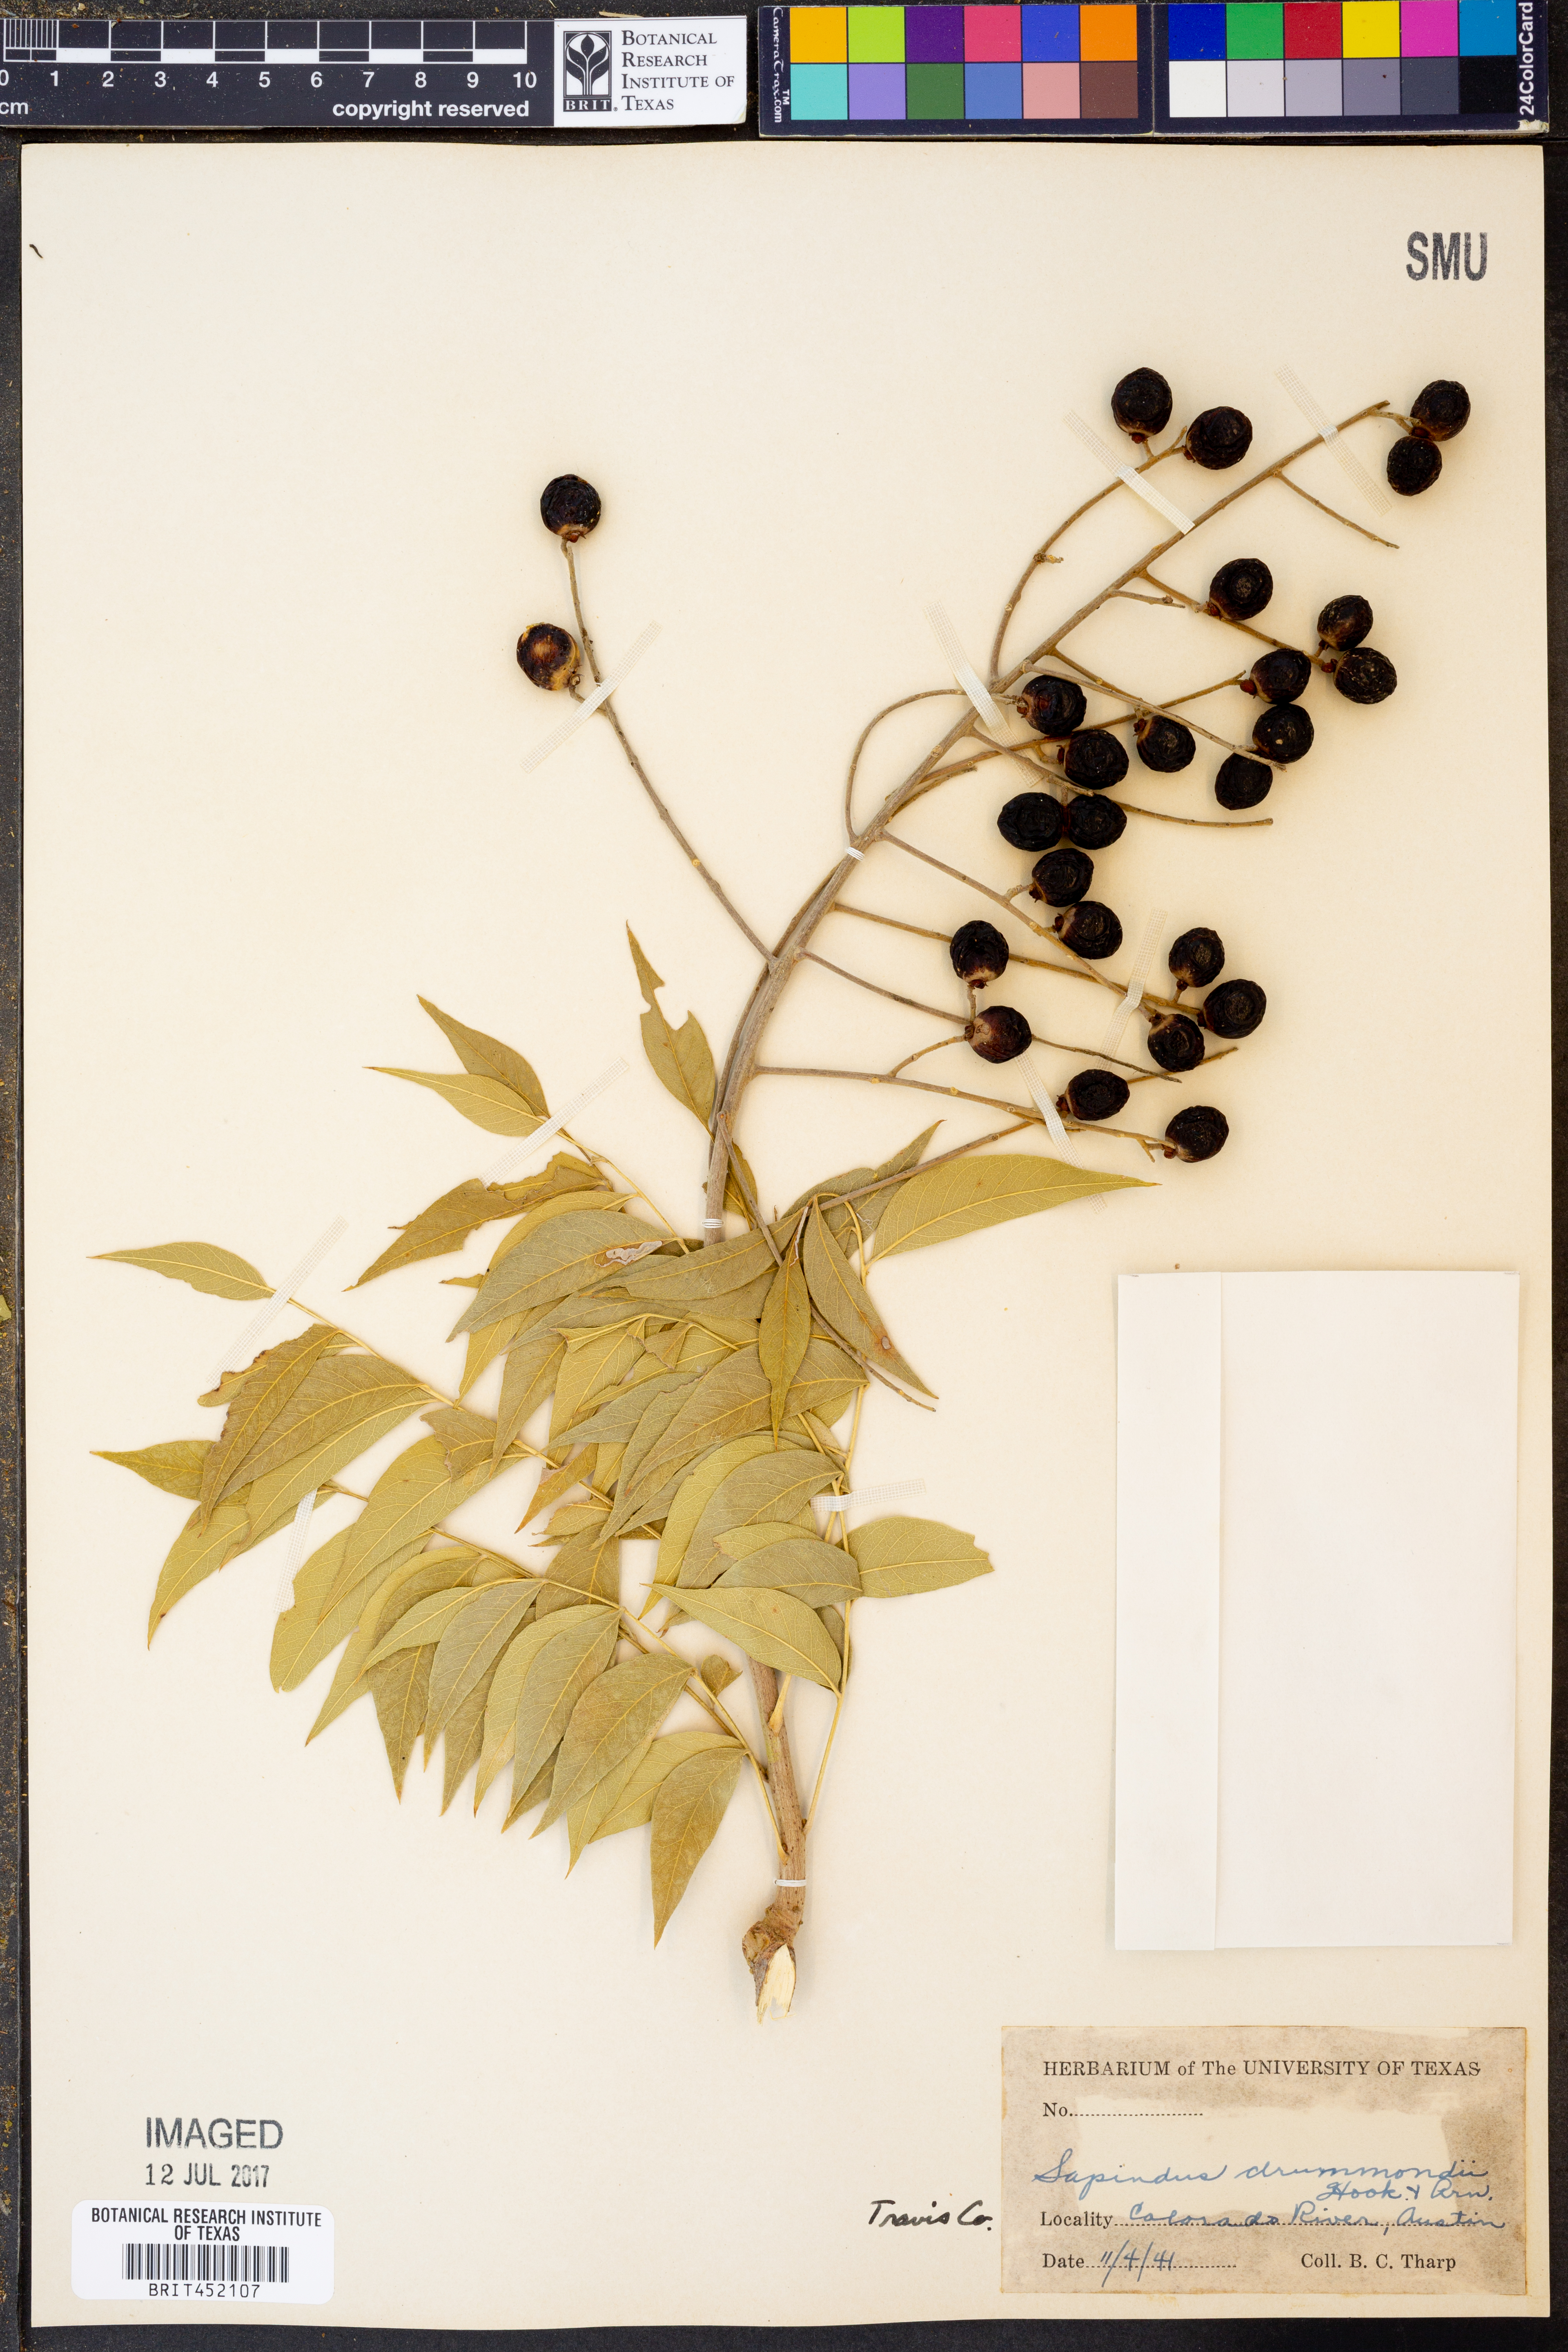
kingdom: Plantae
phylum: Tracheophyta
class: Magnoliopsida
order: Sapindales
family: Sapindaceae
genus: Sapindus
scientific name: Sapindus drummondii
